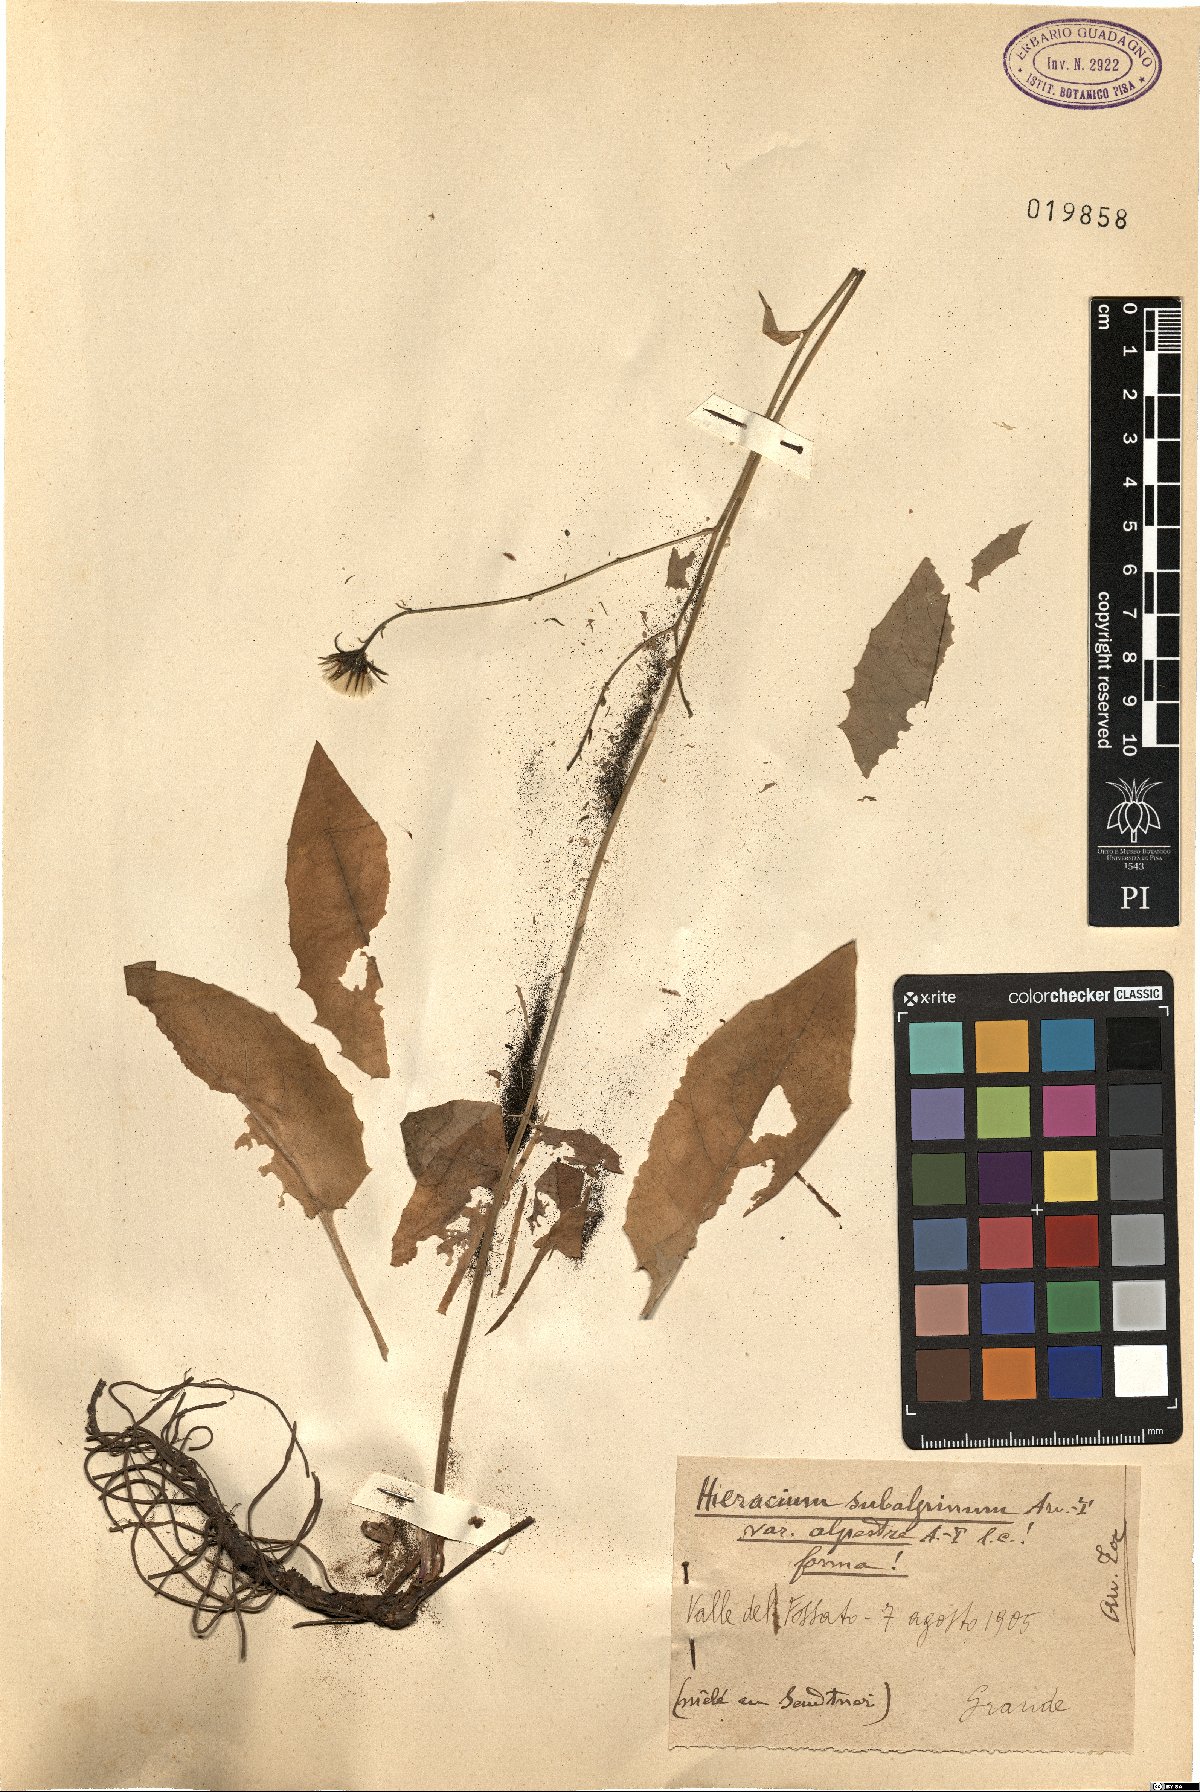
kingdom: Plantae
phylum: Tracheophyta
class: Magnoliopsida
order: Asterales
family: Asteraceae
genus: Hieracium
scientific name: Hieracium umbrosum
